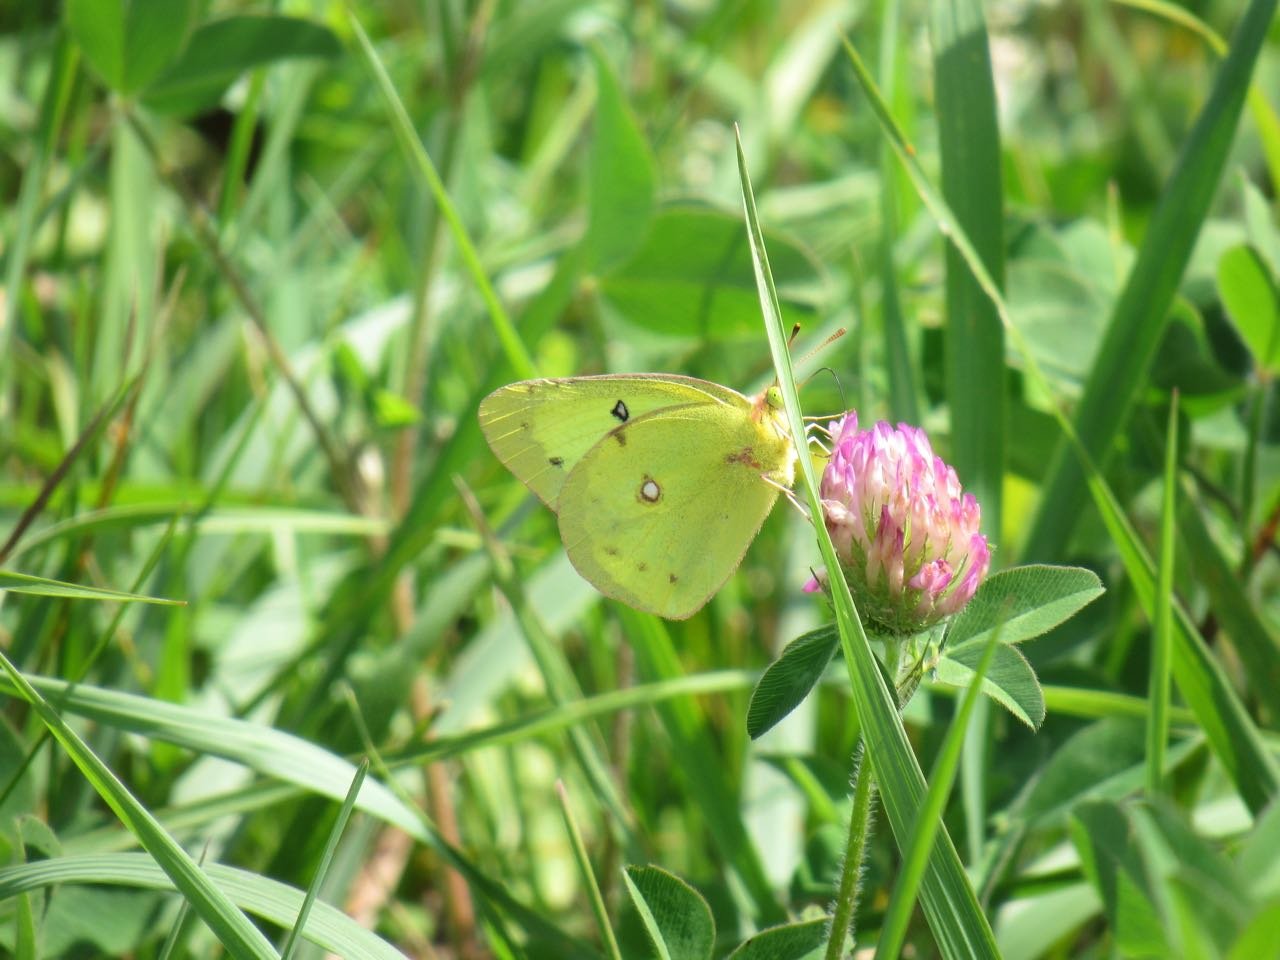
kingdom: Animalia
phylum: Arthropoda
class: Insecta
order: Lepidoptera
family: Pieridae
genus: Colias
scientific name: Colias philodice
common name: Clouded Sulphur
